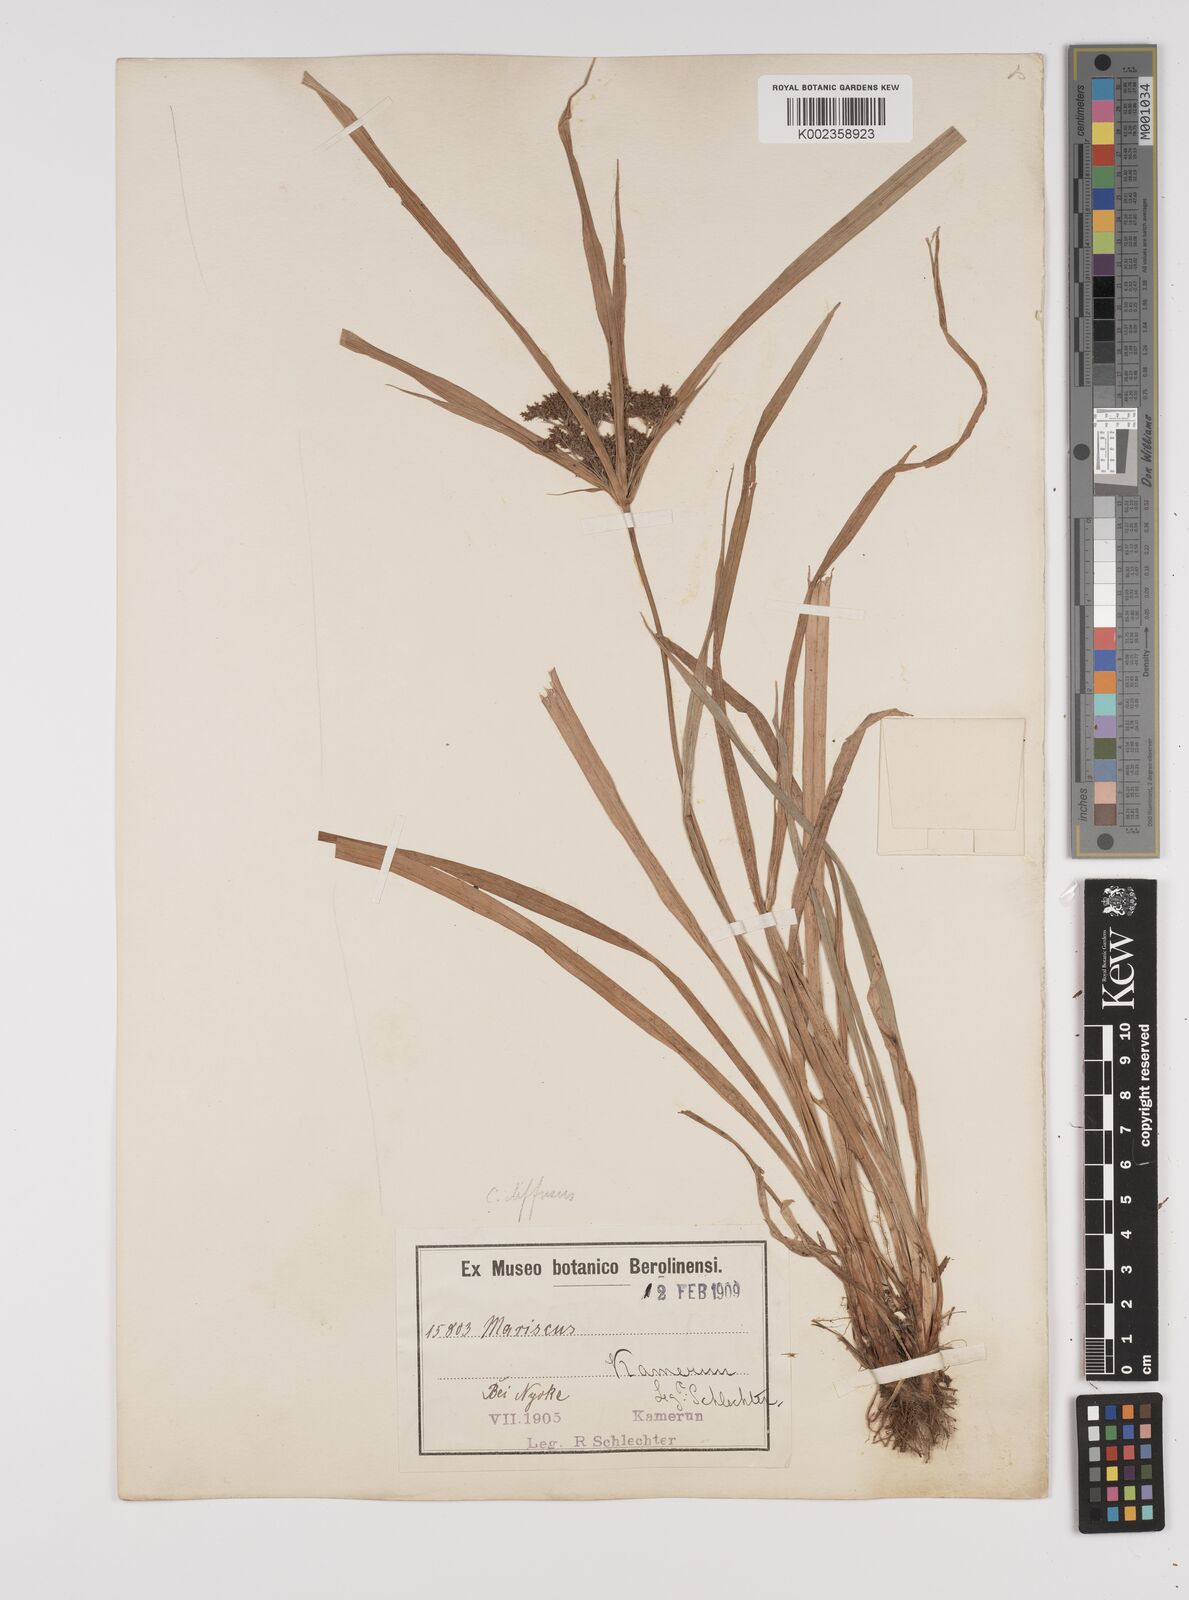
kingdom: Plantae
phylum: Tracheophyta
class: Liliopsida
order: Poales
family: Cyperaceae
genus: Cyperus
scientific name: Cyperus buchholzii
